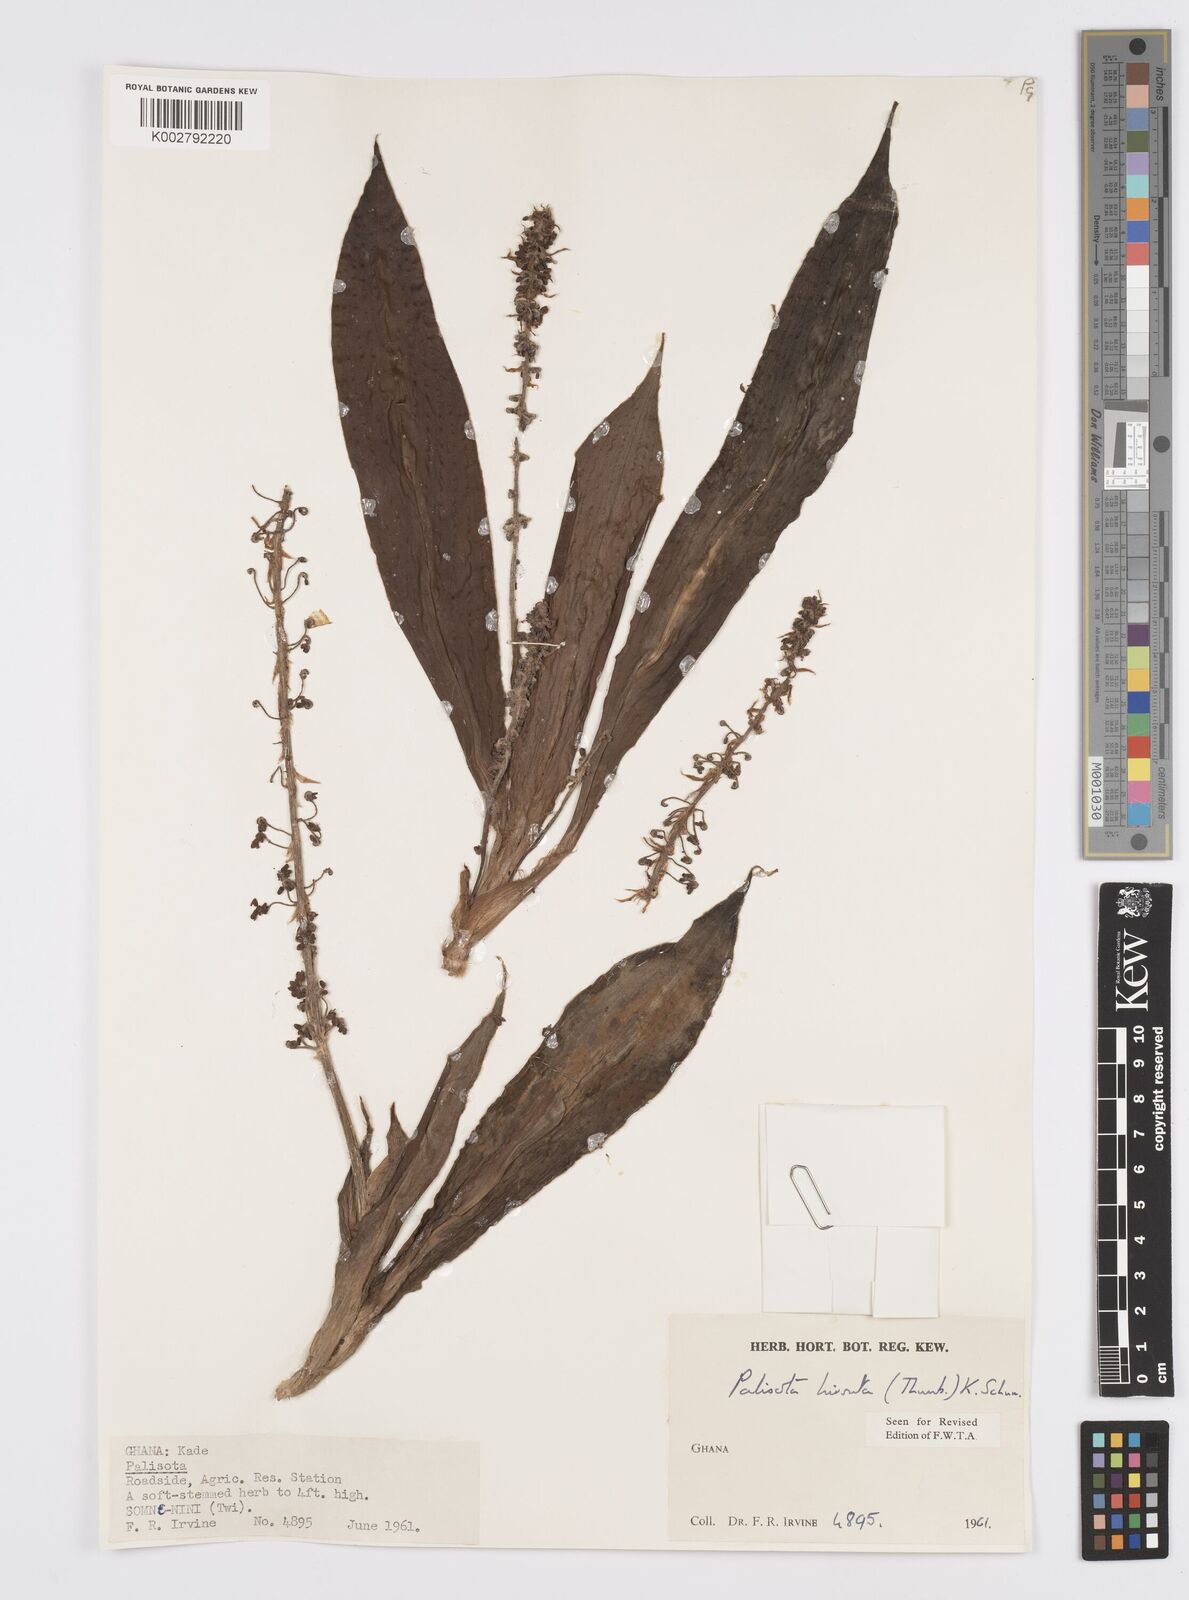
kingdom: Plantae
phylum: Tracheophyta
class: Liliopsida
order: Commelinales
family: Commelinaceae
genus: Palisota
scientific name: Palisota hirsuta
